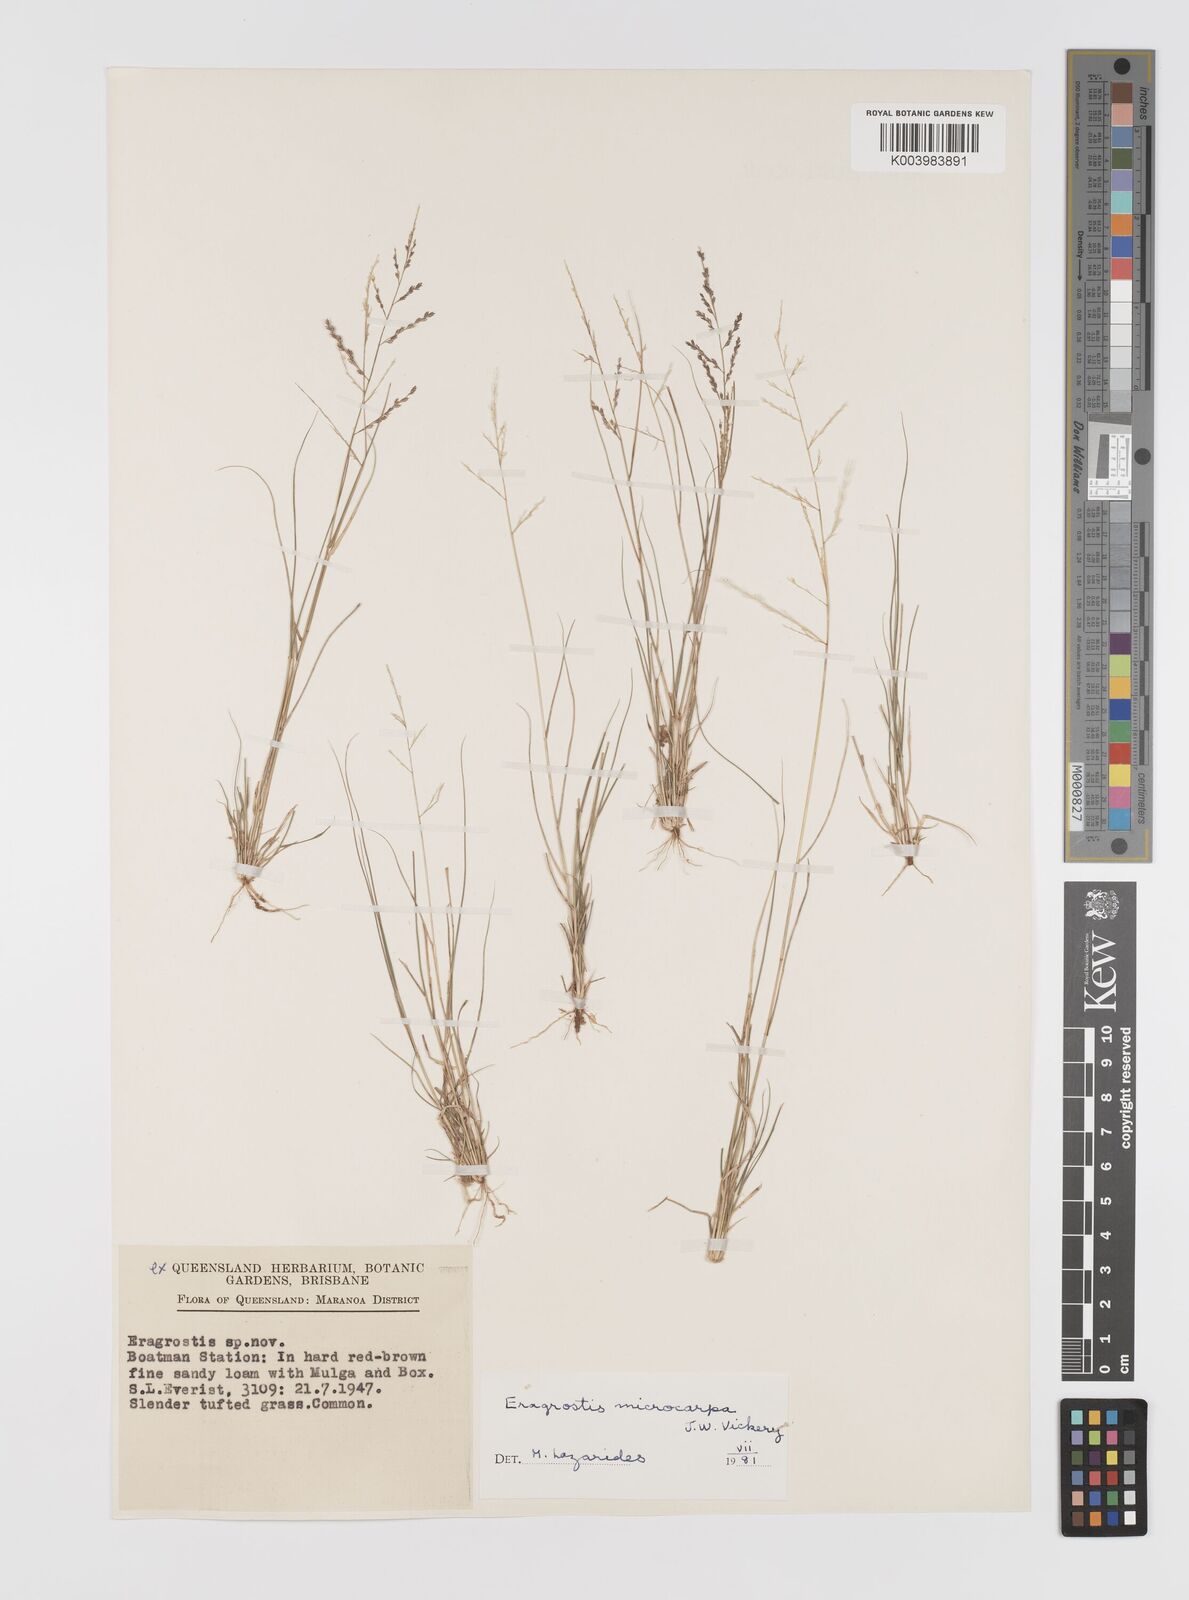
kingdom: Plantae
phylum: Tracheophyta
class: Liliopsida
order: Poales
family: Poaceae
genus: Eragrostis
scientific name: Eragrostis microcarpa
